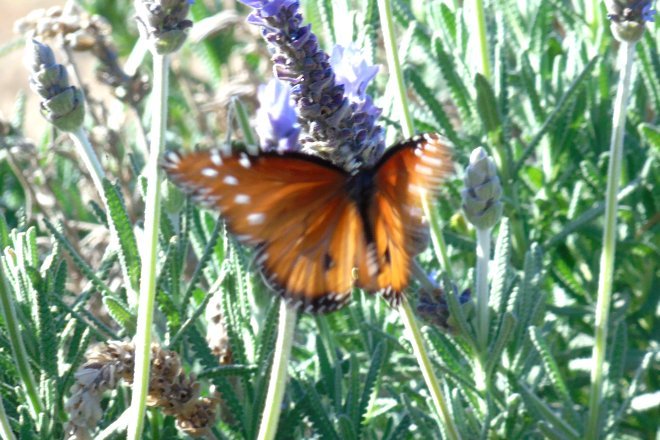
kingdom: Animalia
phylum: Arthropoda
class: Insecta
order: Lepidoptera
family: Nymphalidae
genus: Danaus
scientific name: Danaus gilippus
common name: Queen
